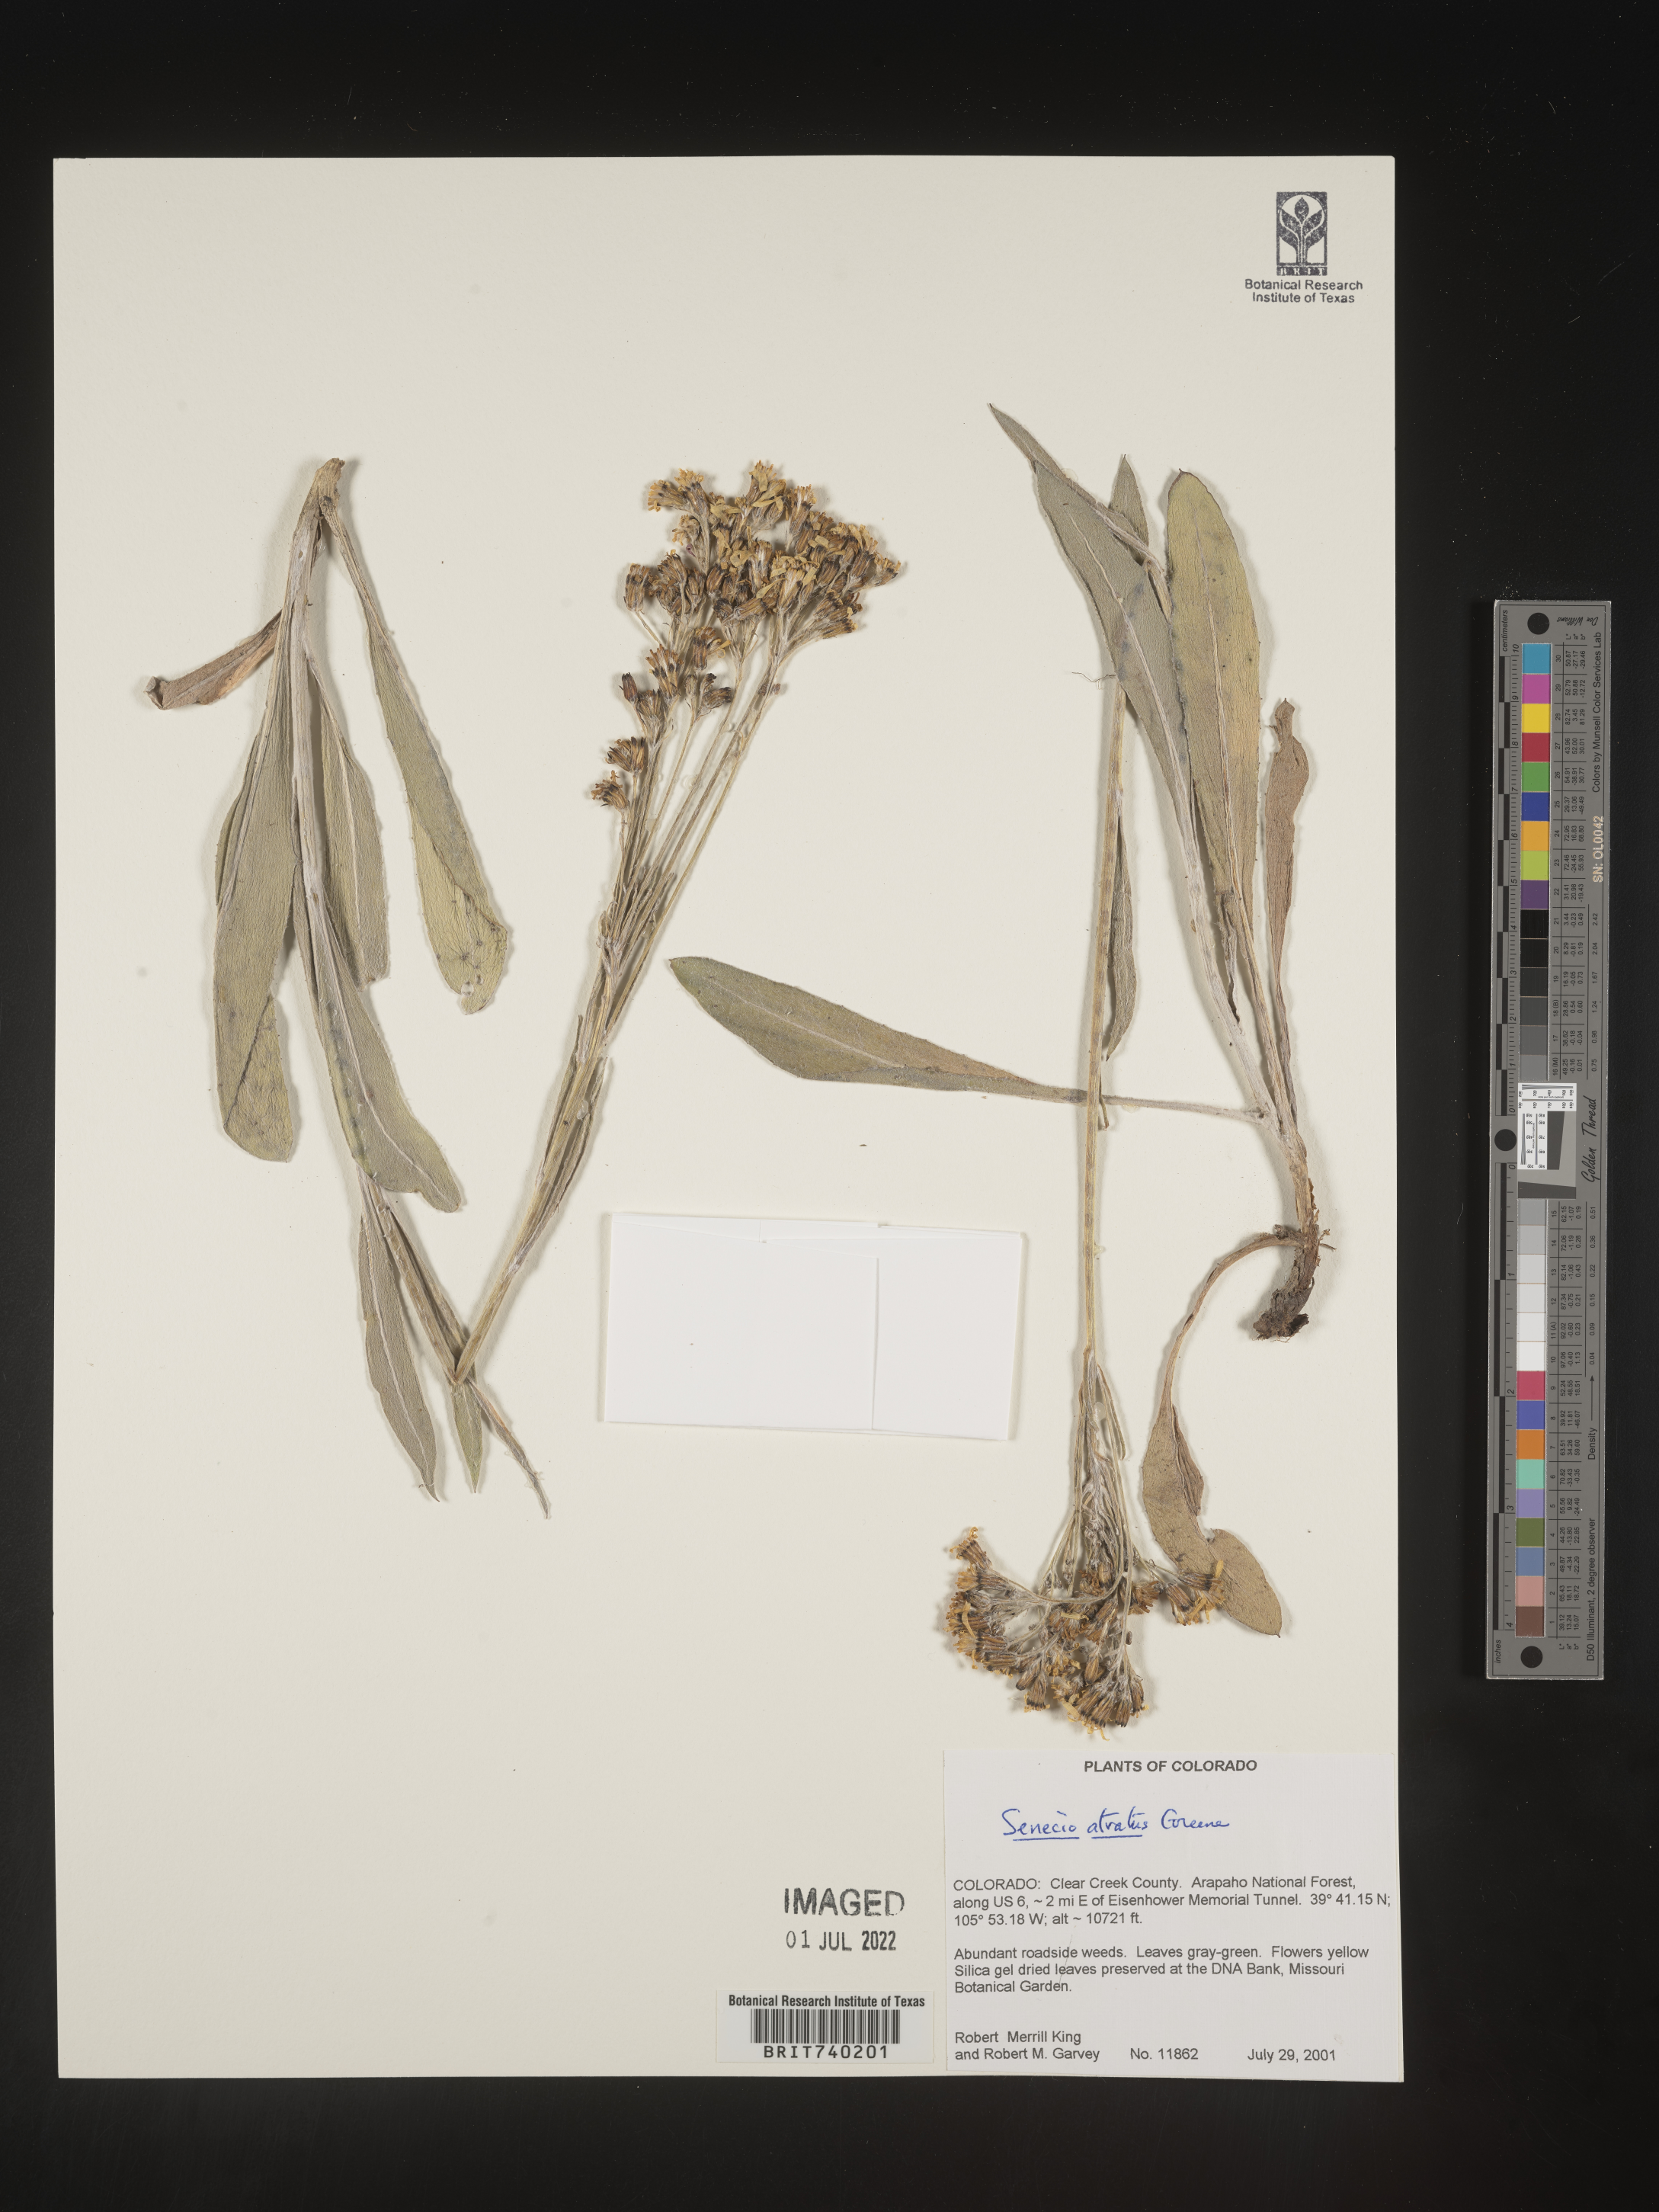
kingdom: Plantae
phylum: Tracheophyta
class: Magnoliopsida
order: Asterales
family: Asteraceae
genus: Senecio
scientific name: Senecio atratus
